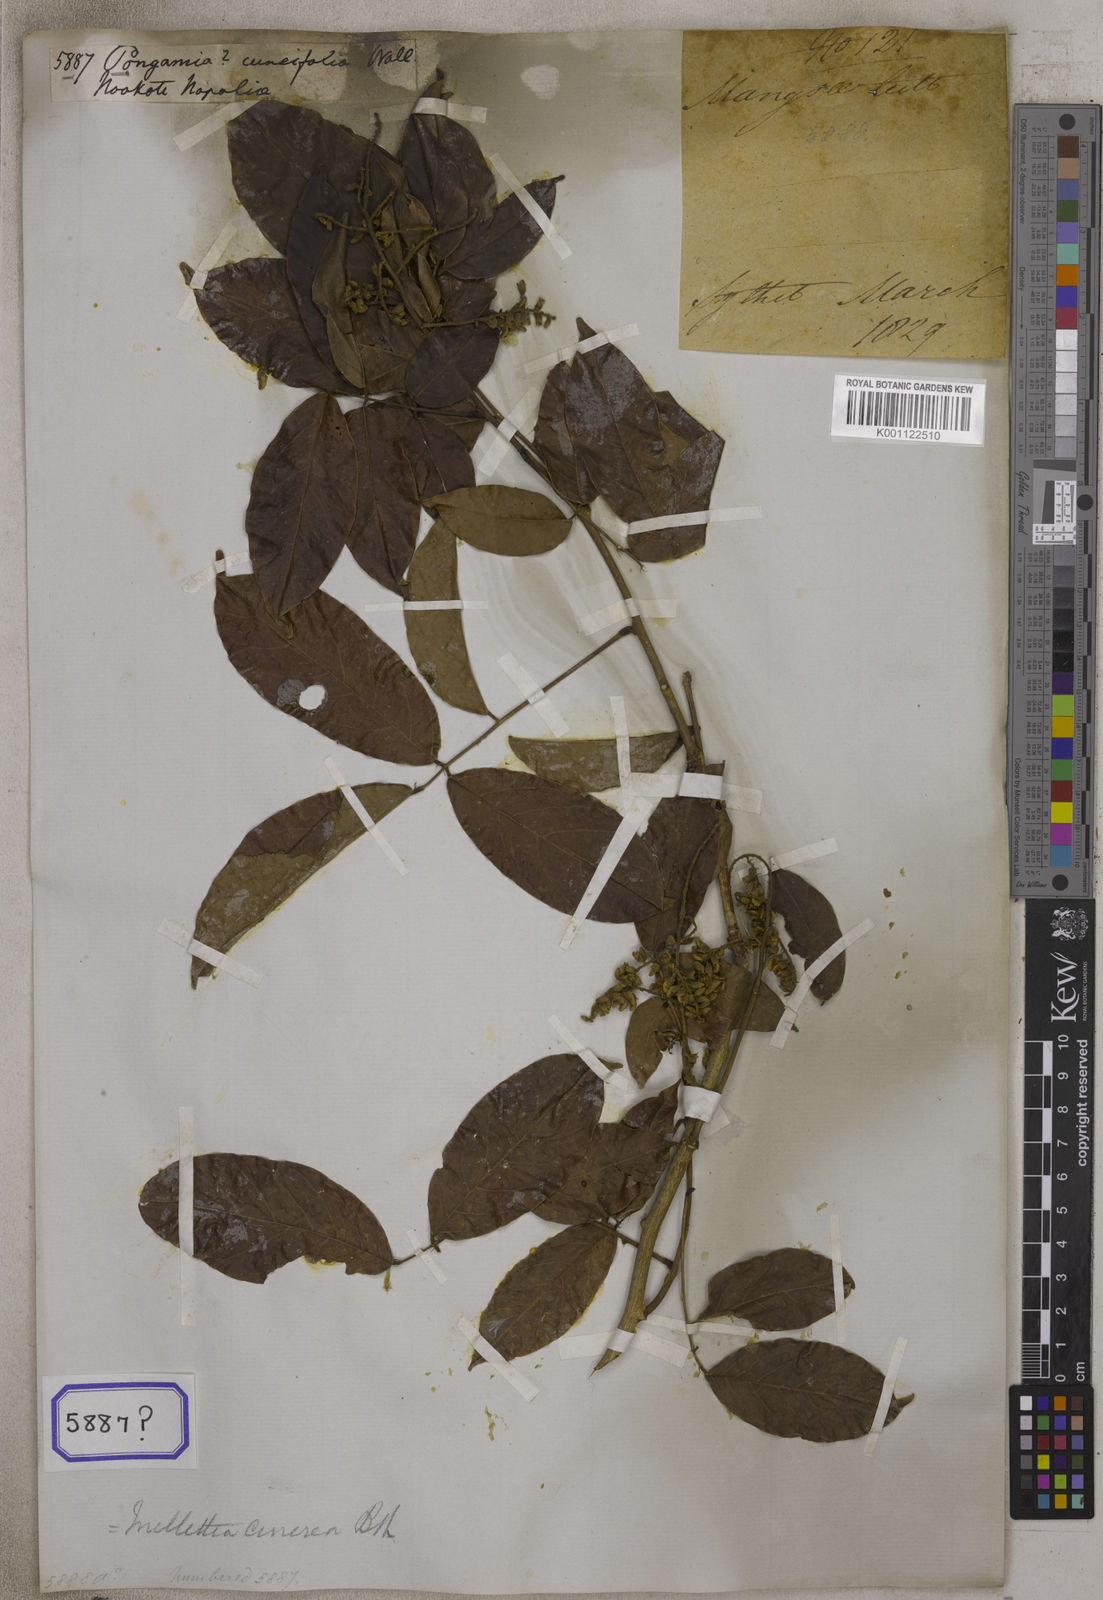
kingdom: Plantae
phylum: Tracheophyta
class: Magnoliopsida
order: Fabales
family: Fabaceae
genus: Pongamia
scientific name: Pongamia
